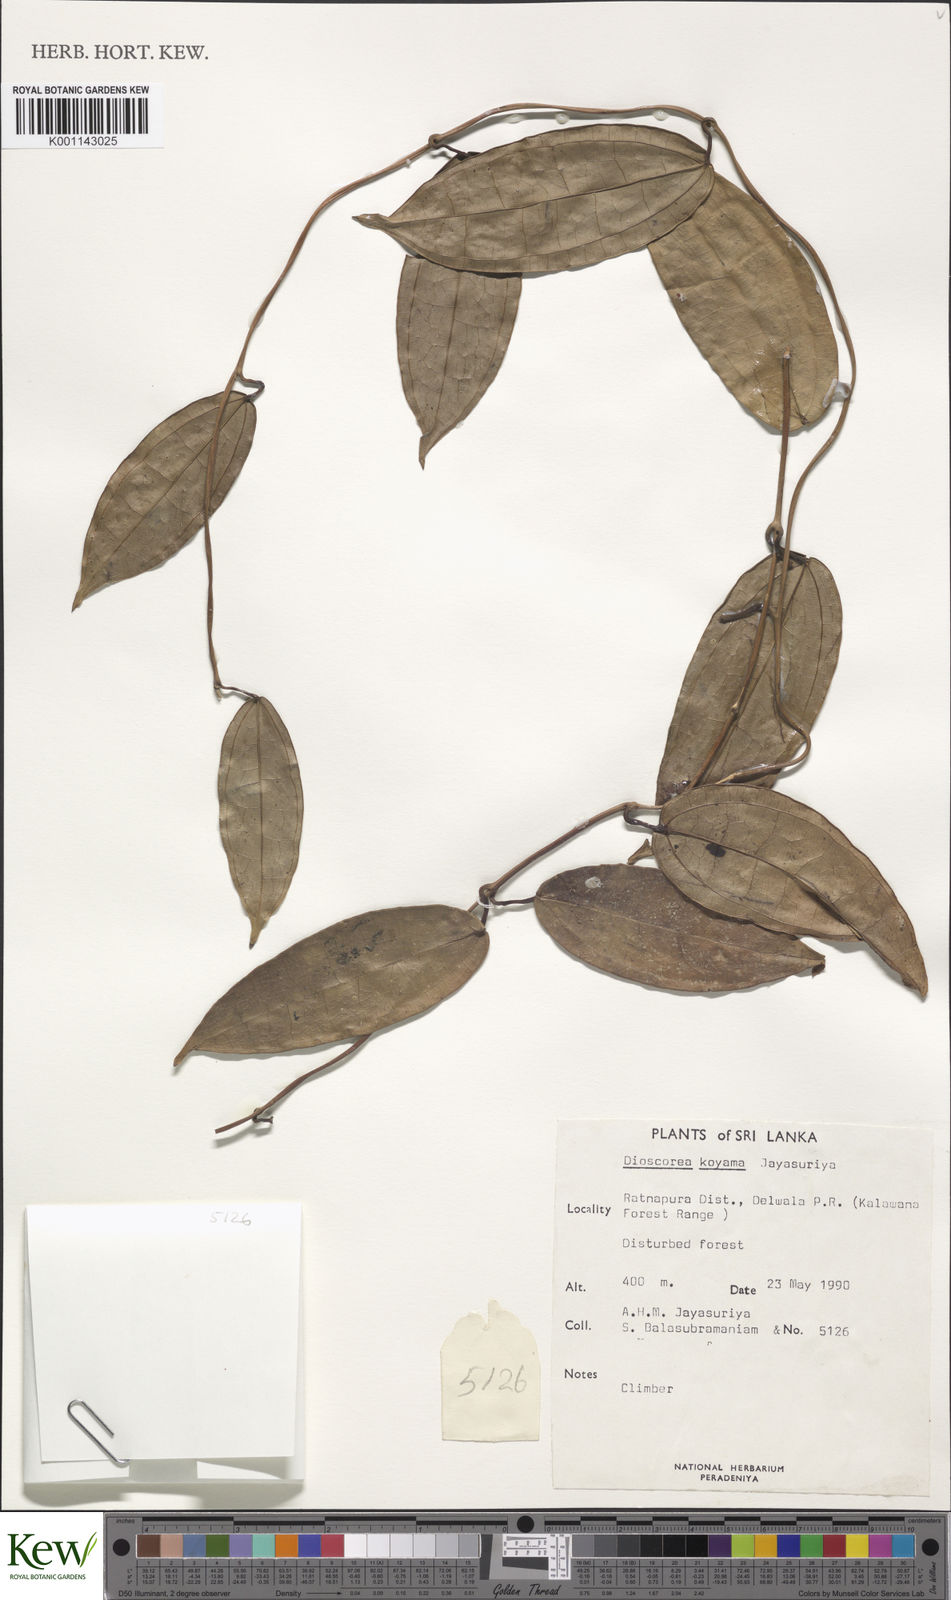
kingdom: Plantae
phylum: Tracheophyta
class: Liliopsida
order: Dioscoreales
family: Dioscoreaceae
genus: Dioscorea
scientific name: Dioscorea koyamae
